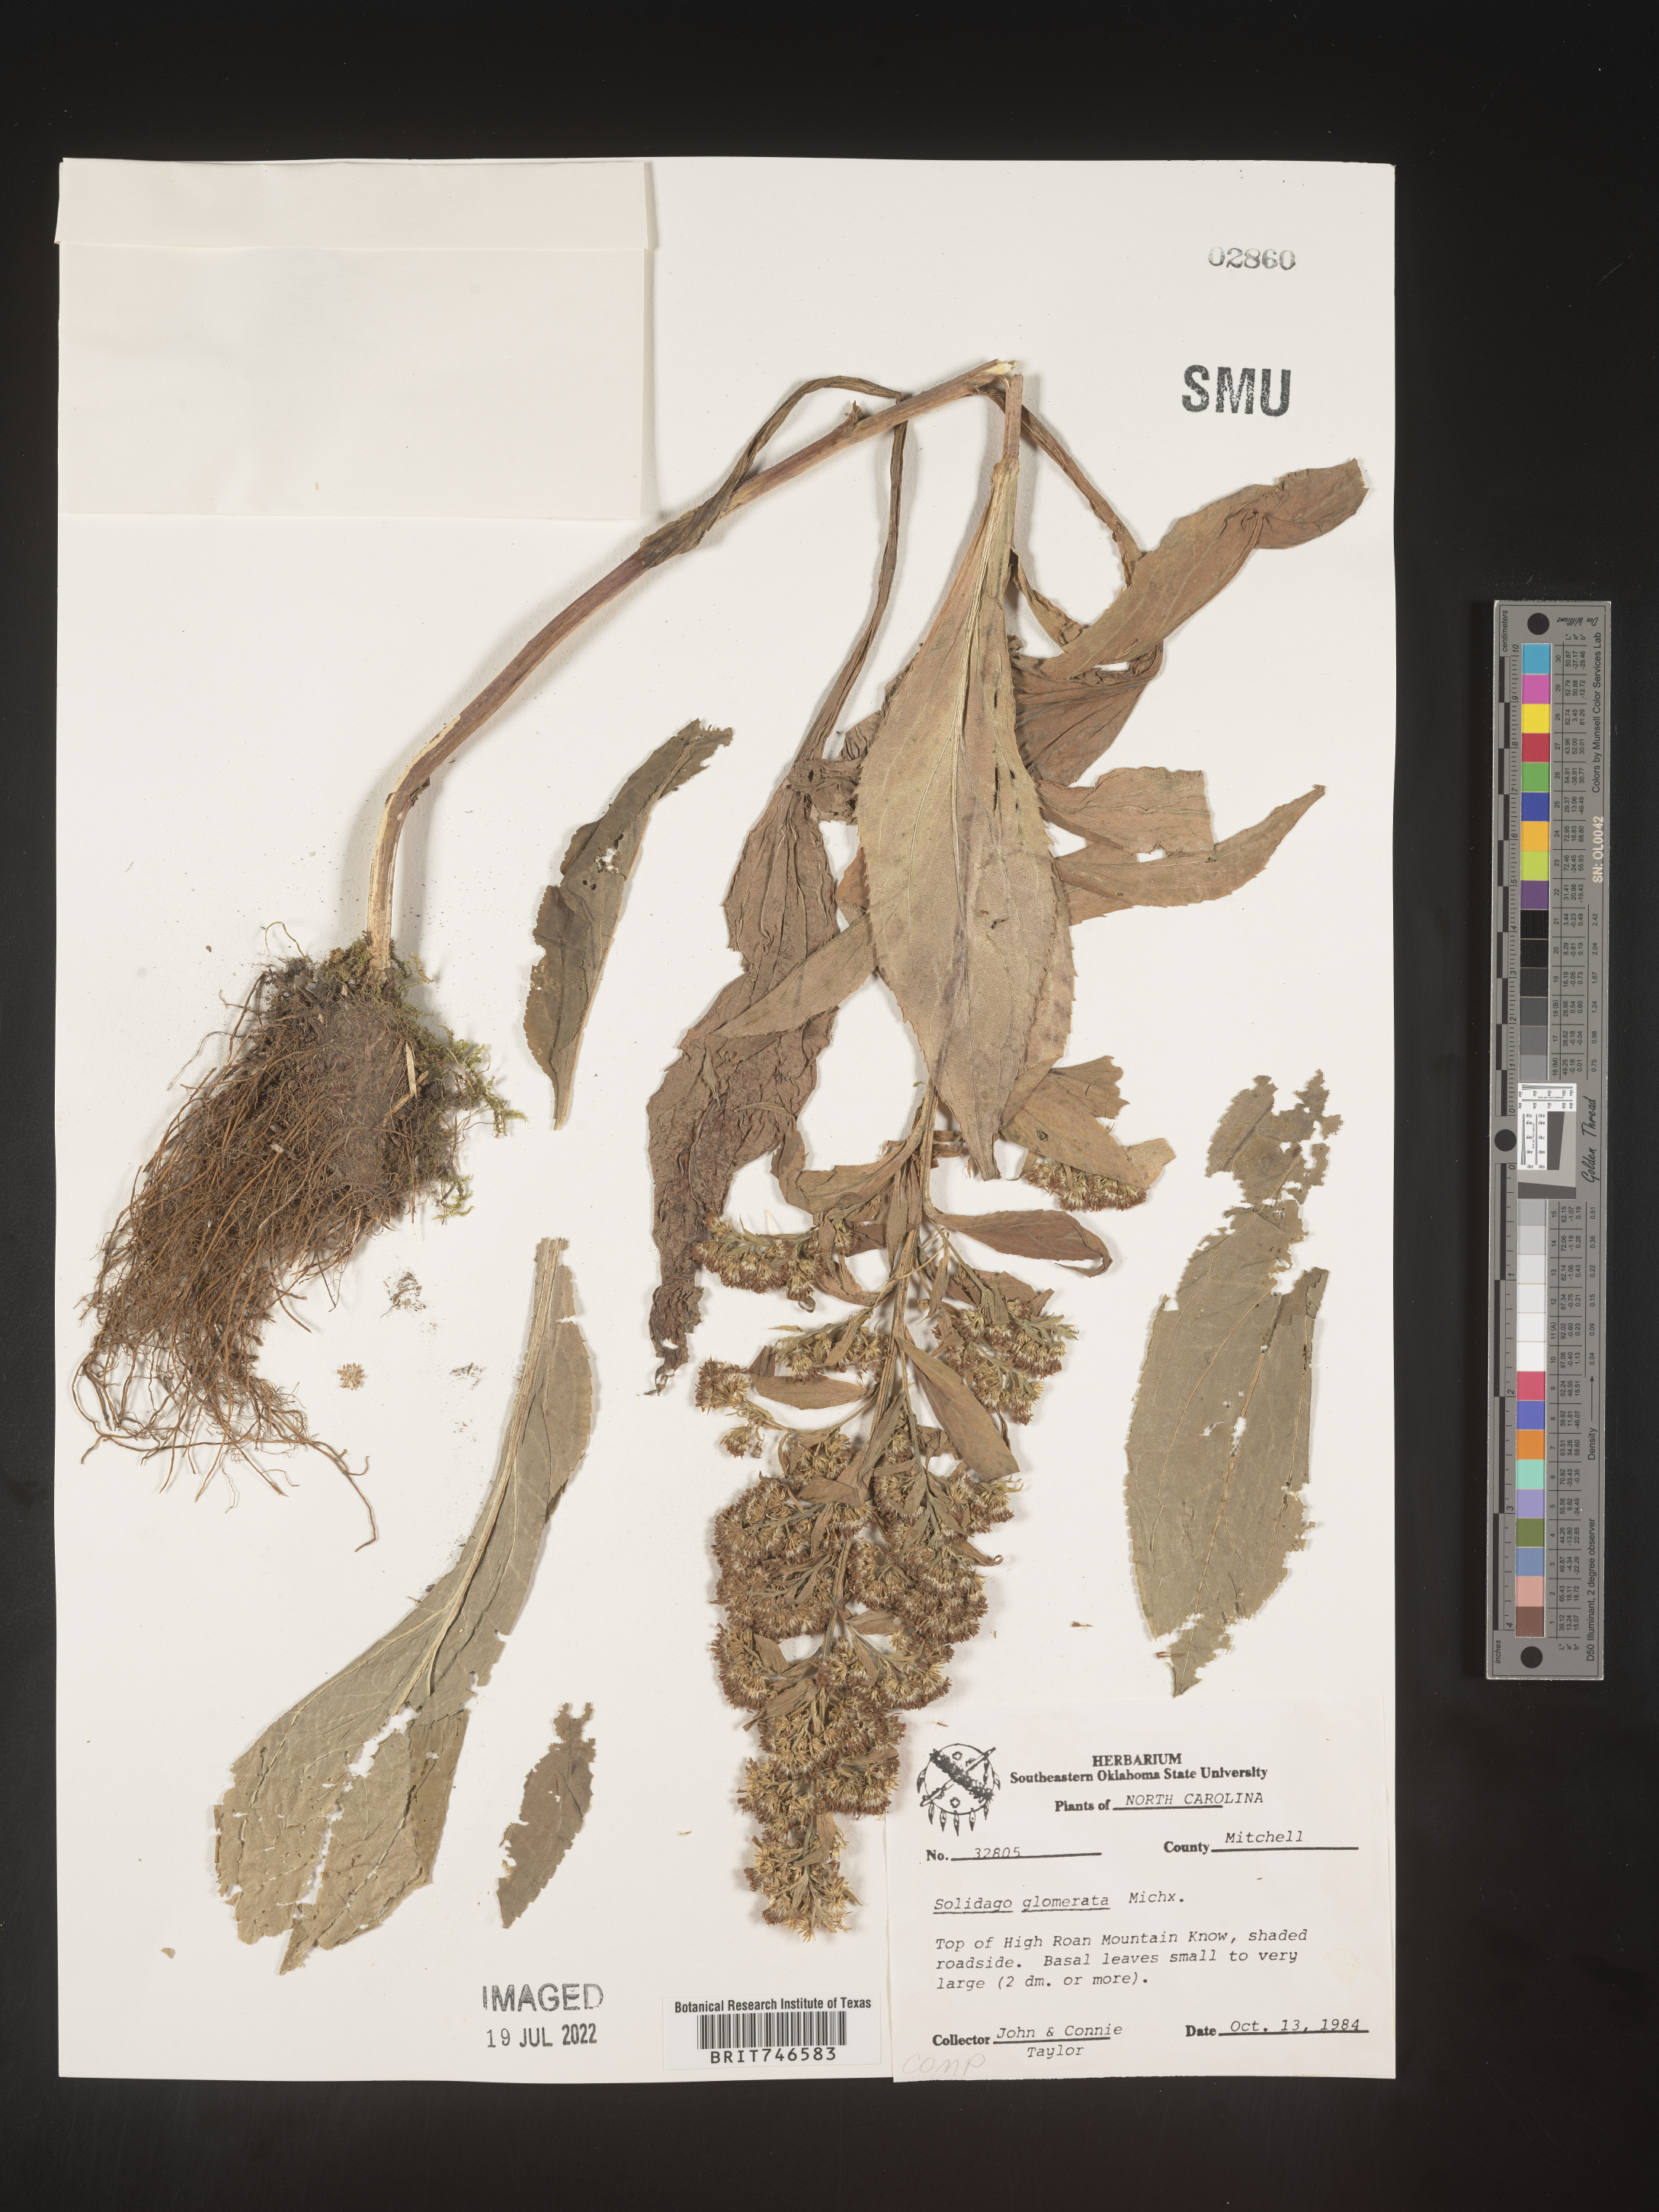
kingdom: Plantae
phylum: Tracheophyta
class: Magnoliopsida
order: Asterales
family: Asteraceae
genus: Solidago
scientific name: Solidago glomerata
